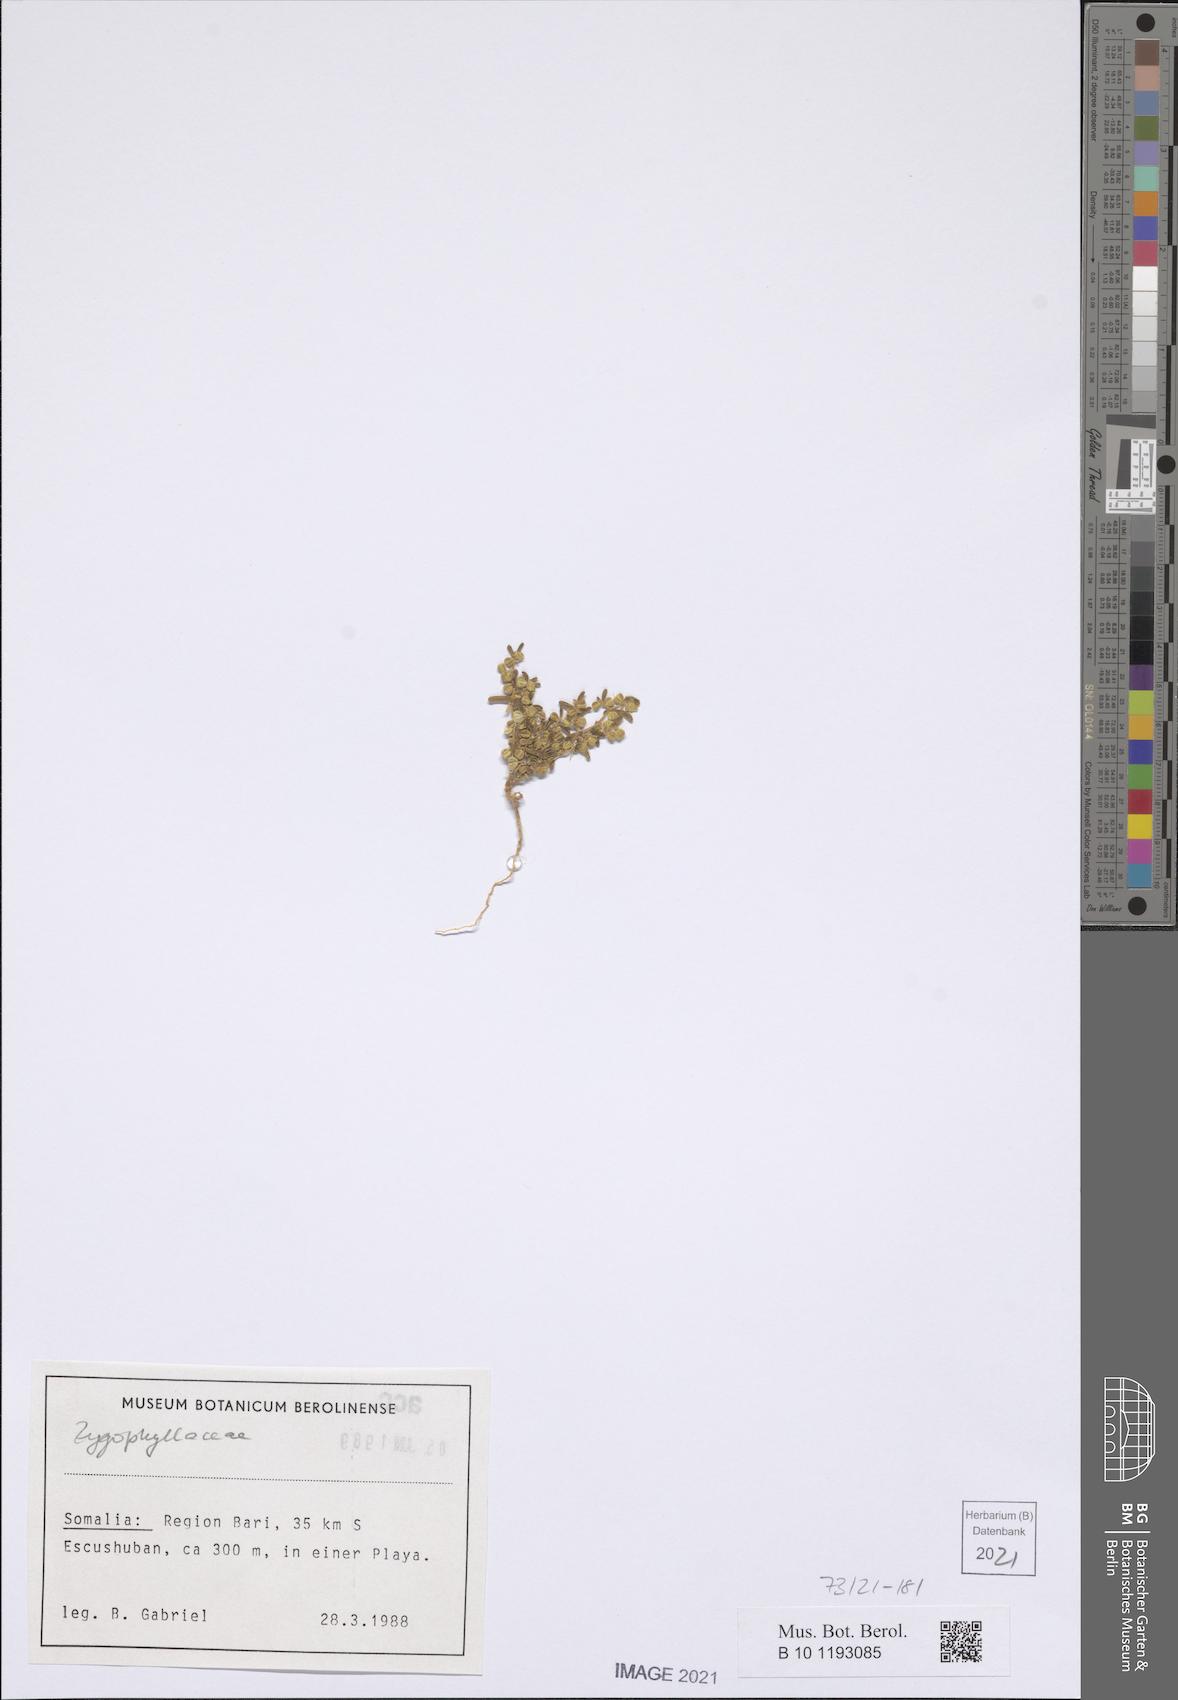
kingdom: Plantae
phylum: Tracheophyta
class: Magnoliopsida
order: Zygophyllales
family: Zygophyllaceae
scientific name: Zygophyllaceae
